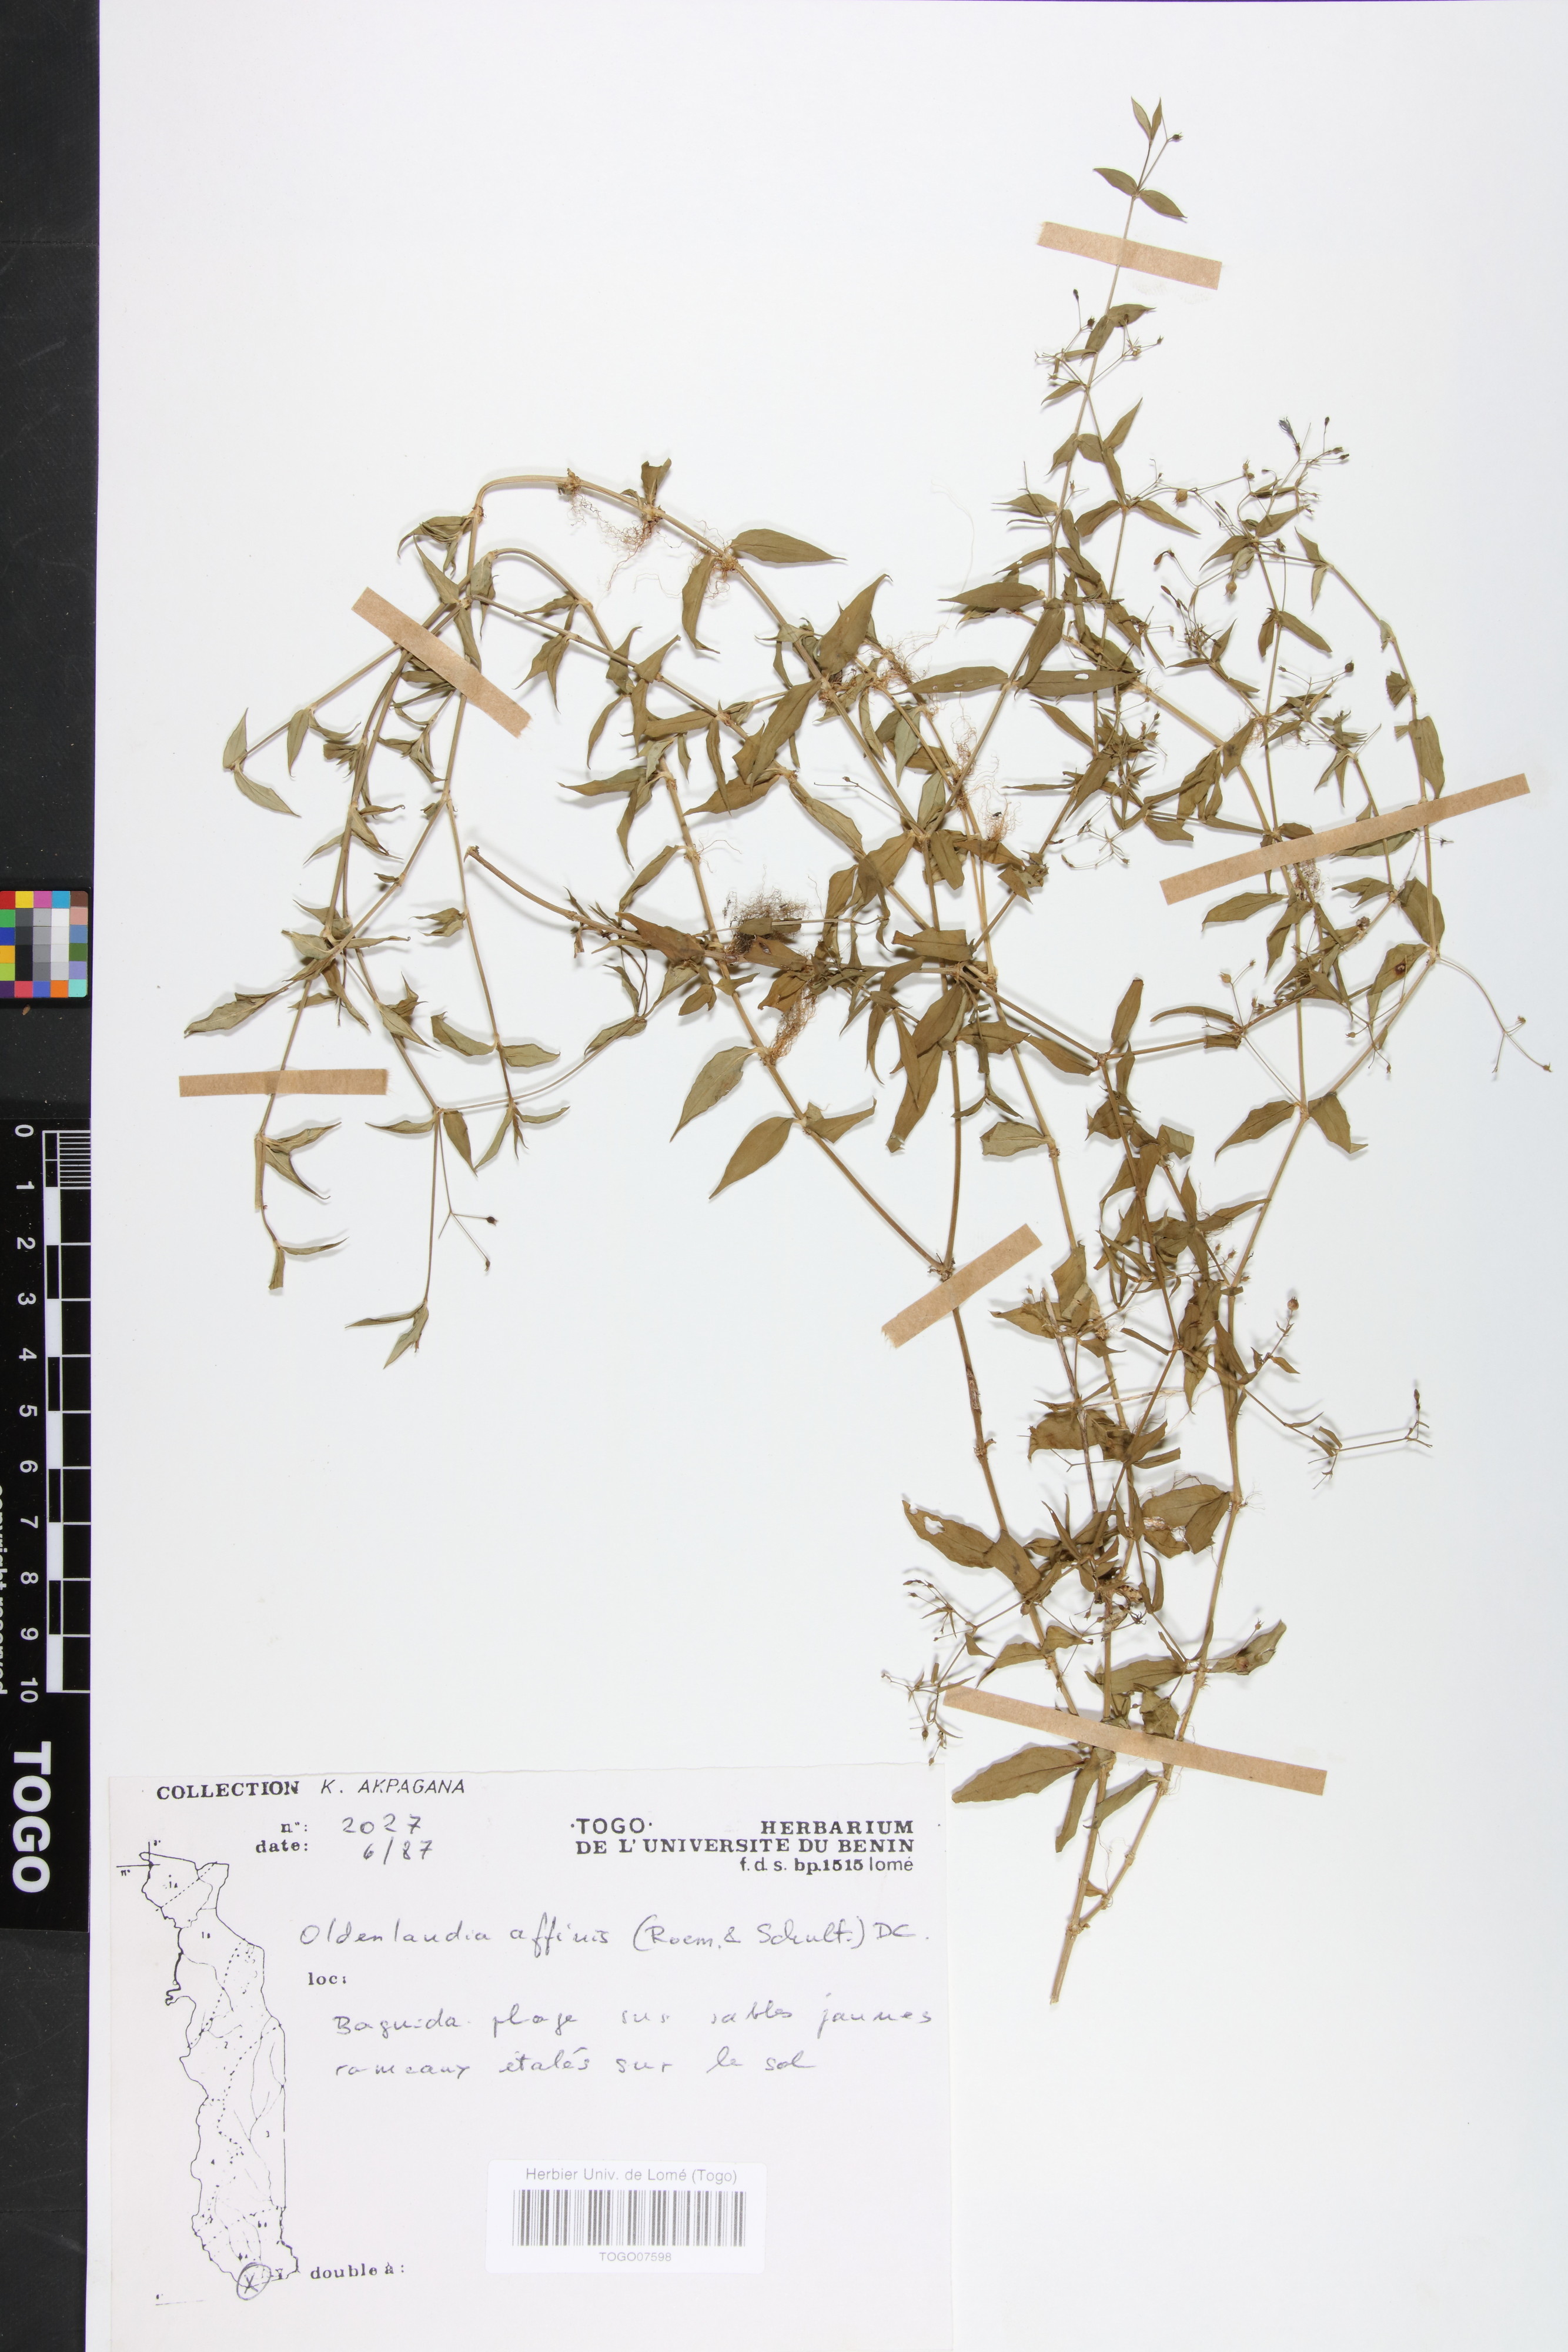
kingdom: Plantae
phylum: Tracheophyta
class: Magnoliopsida
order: Gentianales
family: Rubiaceae
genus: Oldenlandia
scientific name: Oldenlandia affinis
